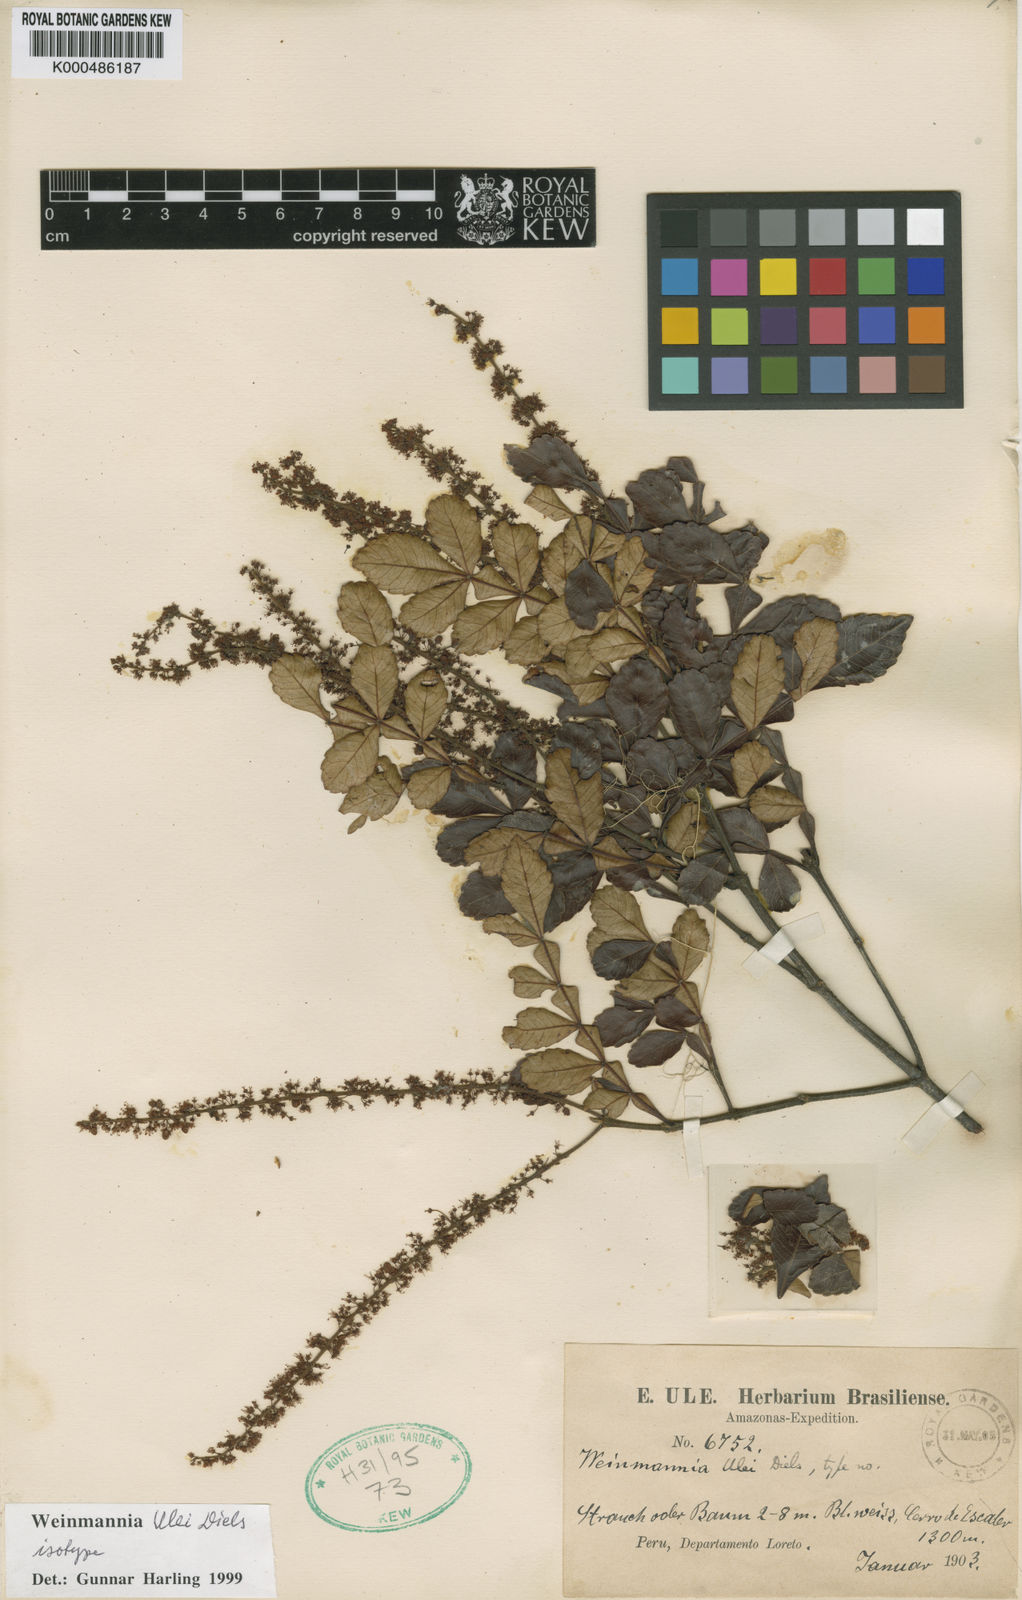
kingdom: Plantae
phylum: Tracheophyta
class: Magnoliopsida
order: Oxalidales
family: Cunoniaceae
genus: Weinmannia
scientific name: Weinmannia ulei
